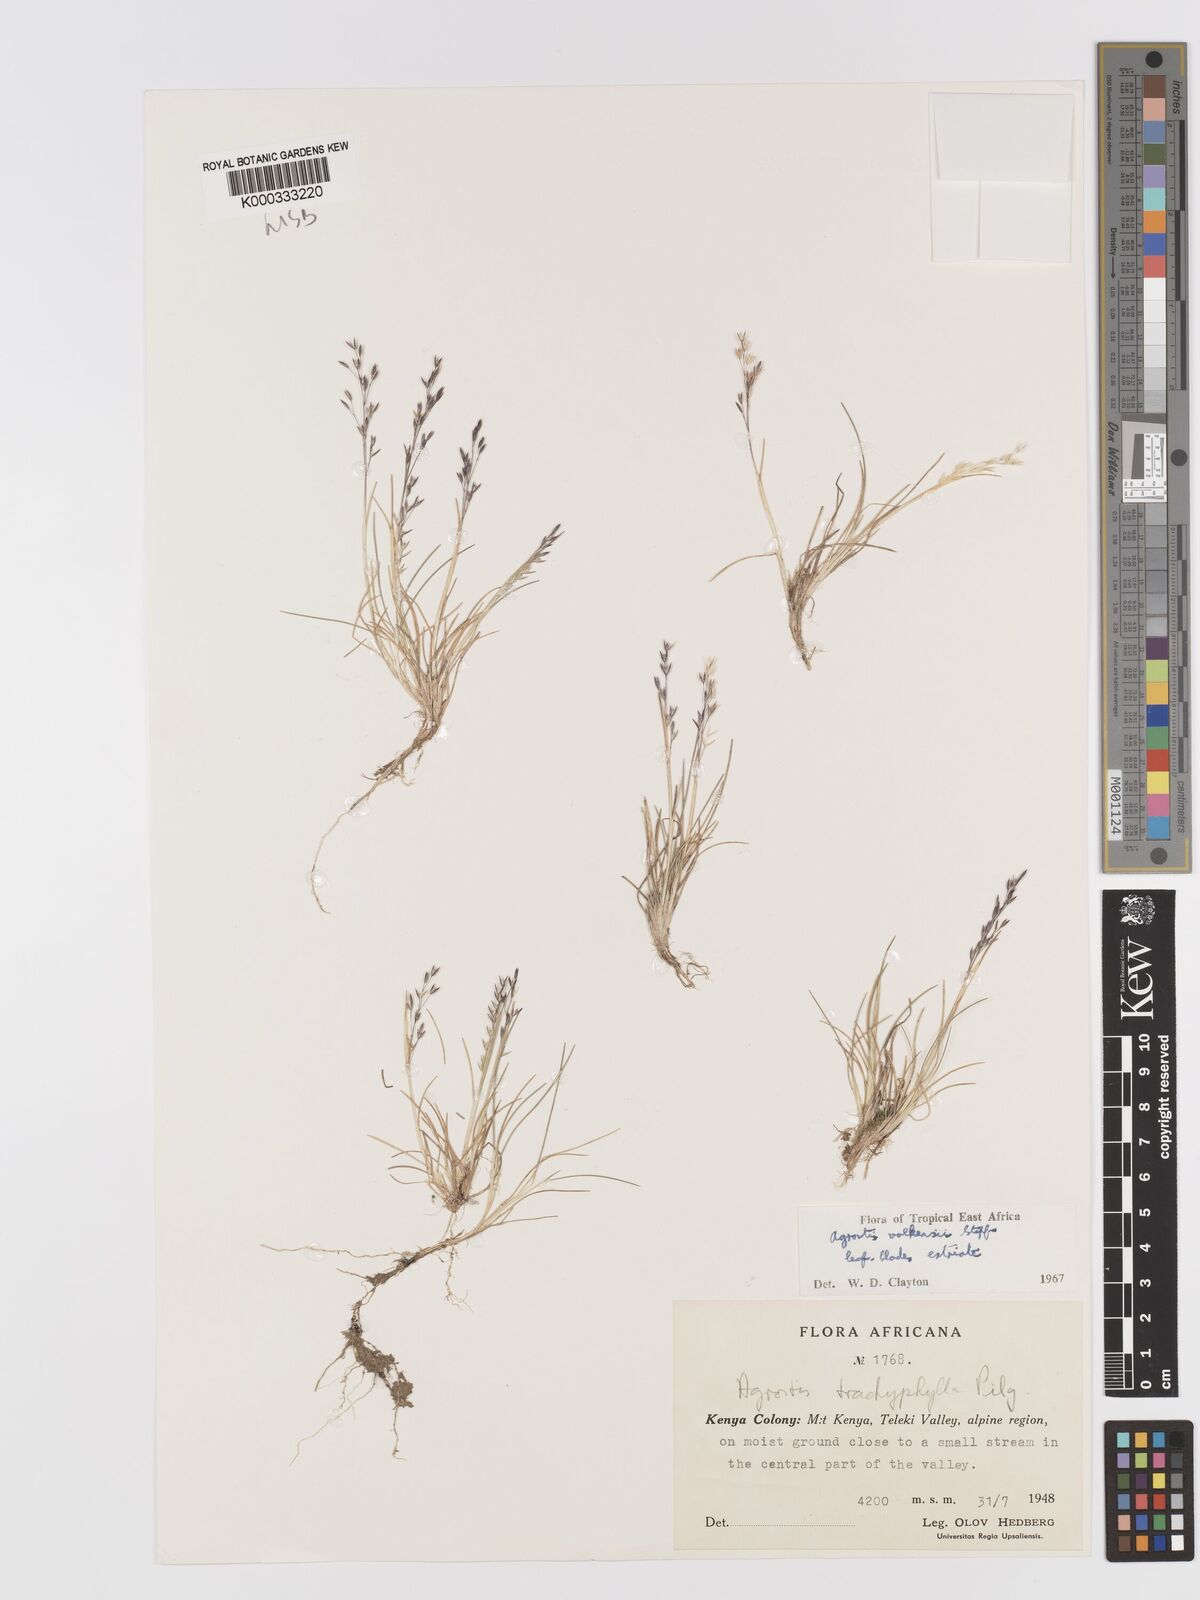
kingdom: Plantae
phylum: Tracheophyta
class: Liliopsida
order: Poales
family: Poaceae
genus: Agrostis
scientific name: Agrostis volkensii
